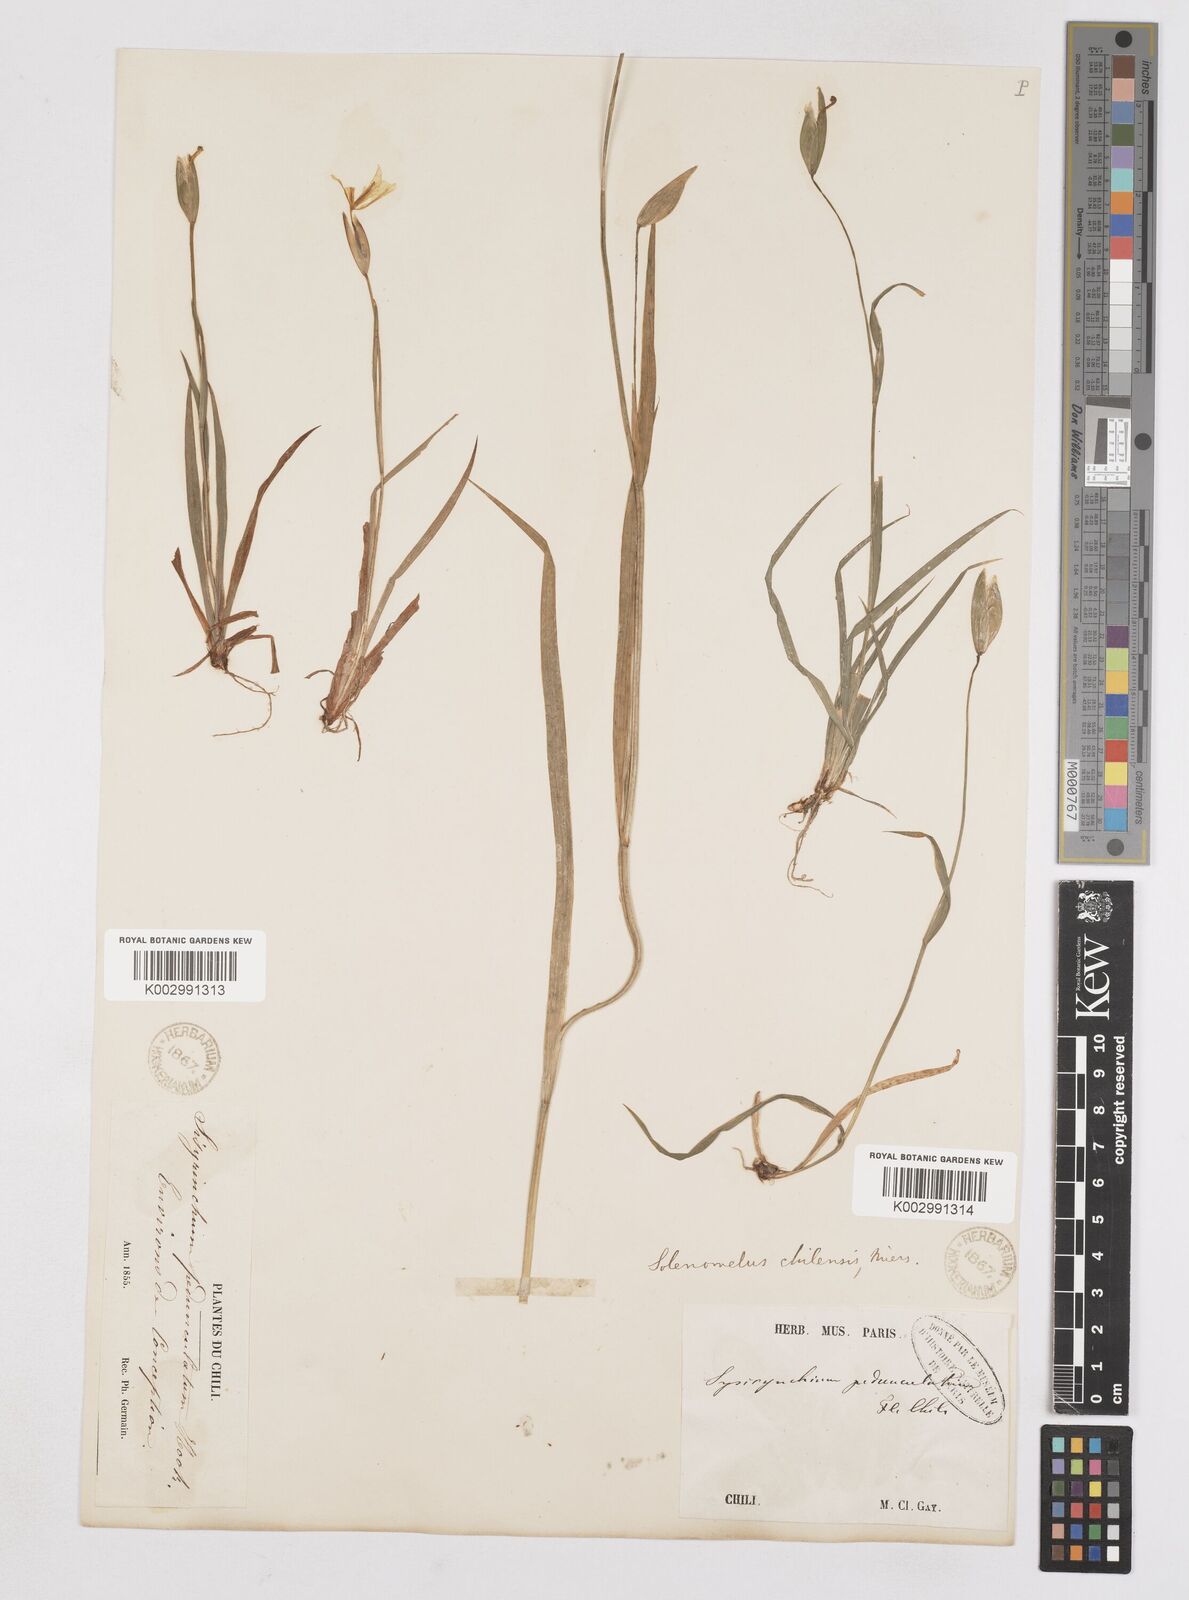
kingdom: Plantae
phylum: Tracheophyta
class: Liliopsida
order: Asparagales
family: Iridaceae
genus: Solenomelus
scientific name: Solenomelus pedunculatus
